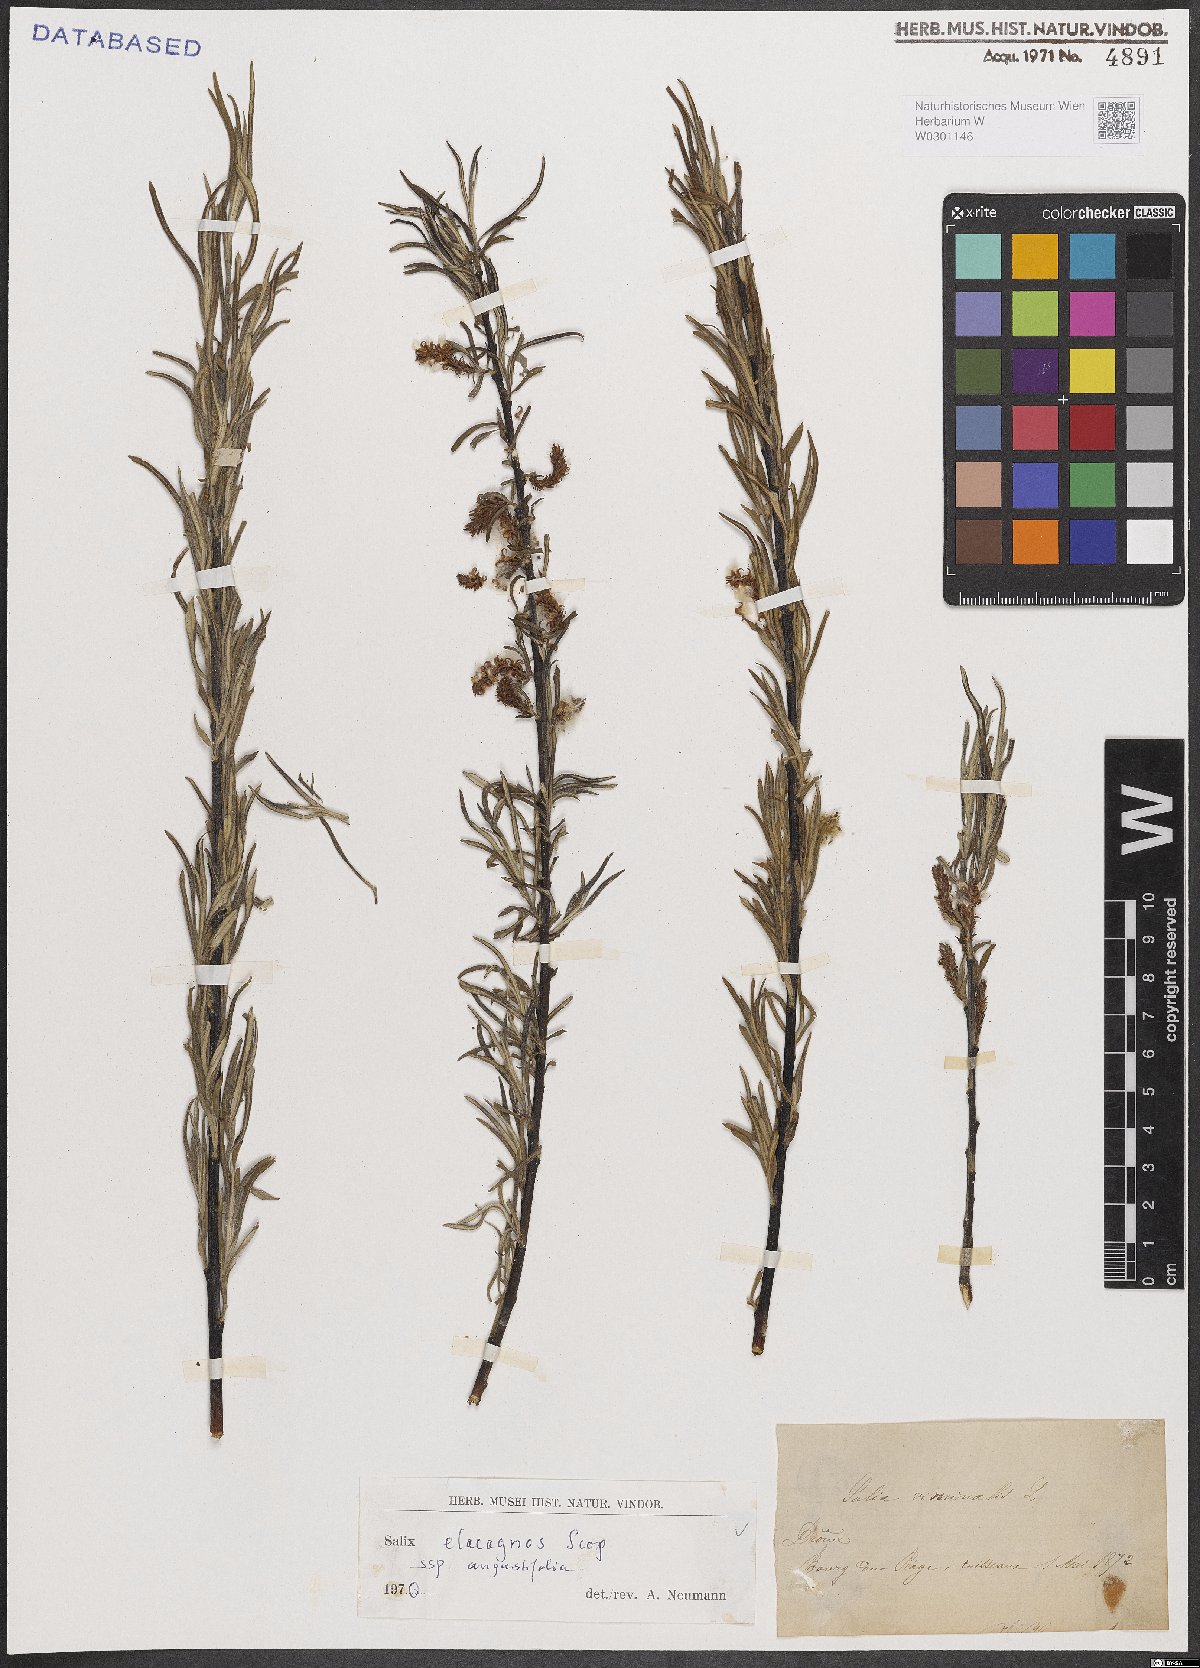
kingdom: Plantae
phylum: Tracheophyta
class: Magnoliopsida
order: Malpighiales
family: Salicaceae
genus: Salix
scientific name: Salix eleagnos
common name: Elaeagnus willow
